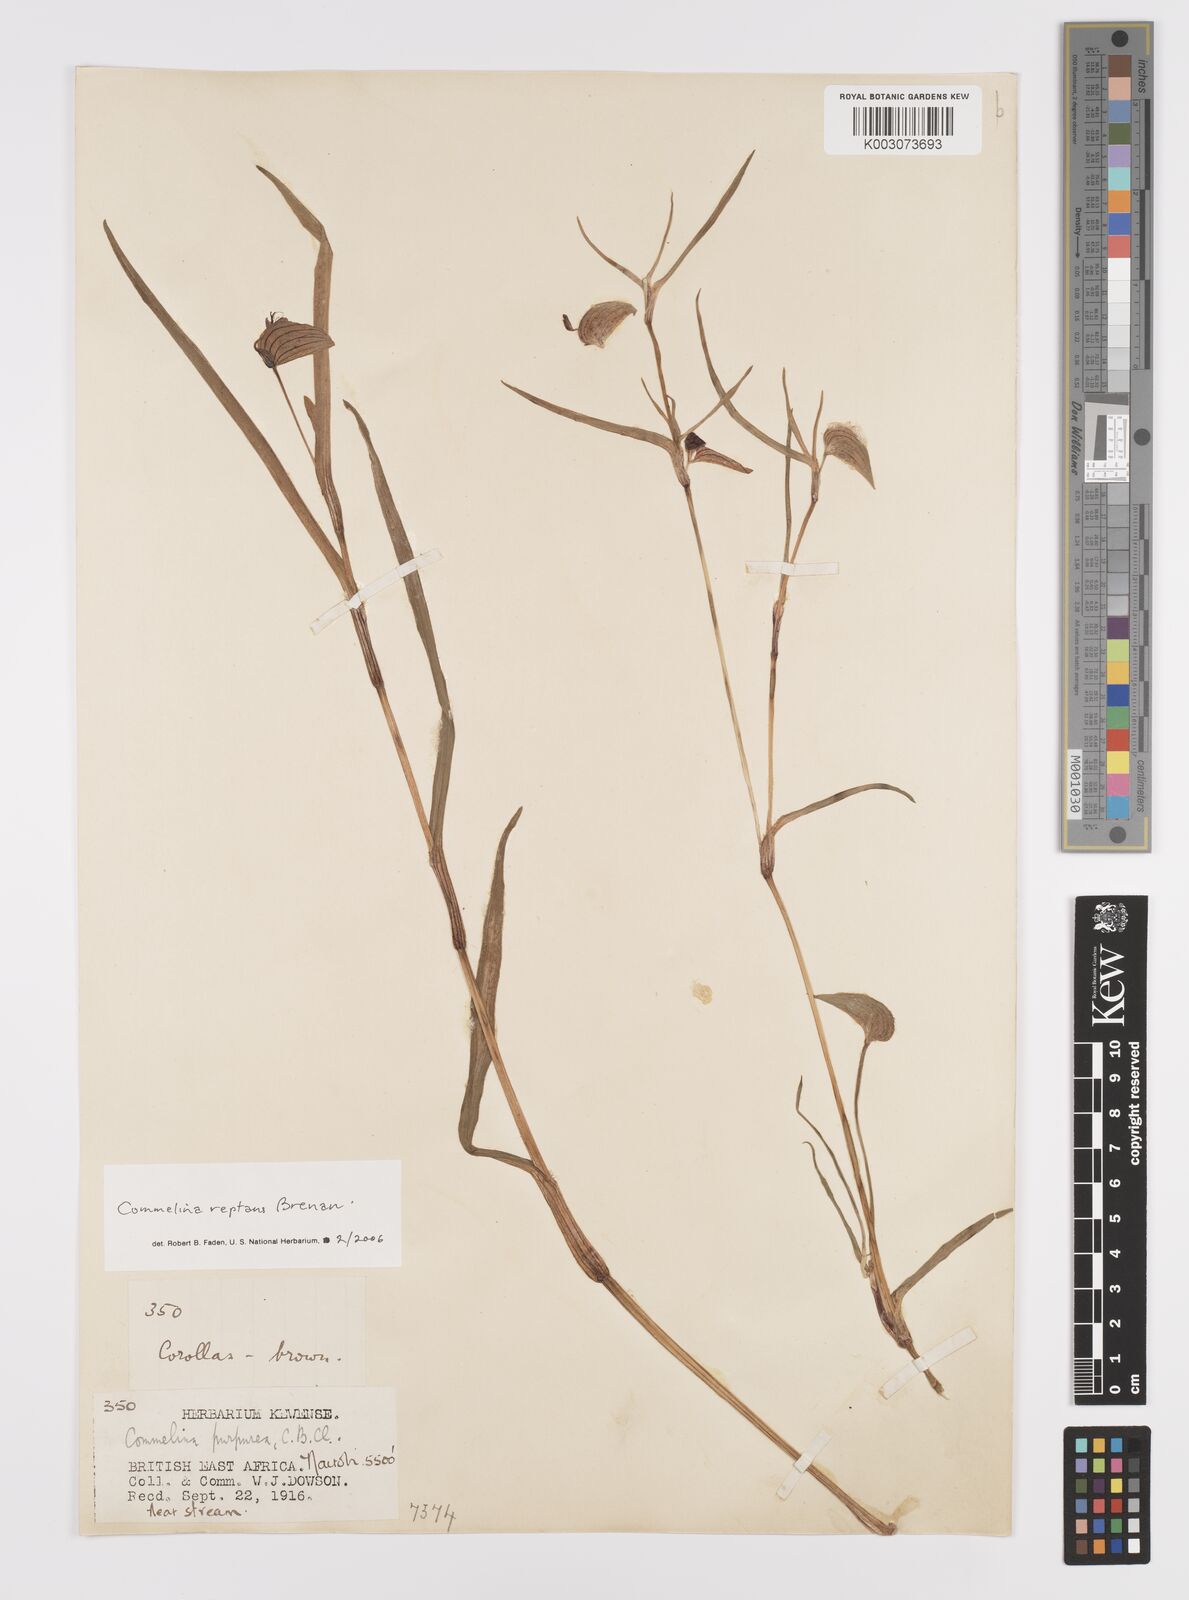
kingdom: Plantae
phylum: Tracheophyta
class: Liliopsida
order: Commelinales
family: Commelinaceae
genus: Commelina
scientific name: Commelina reptans
